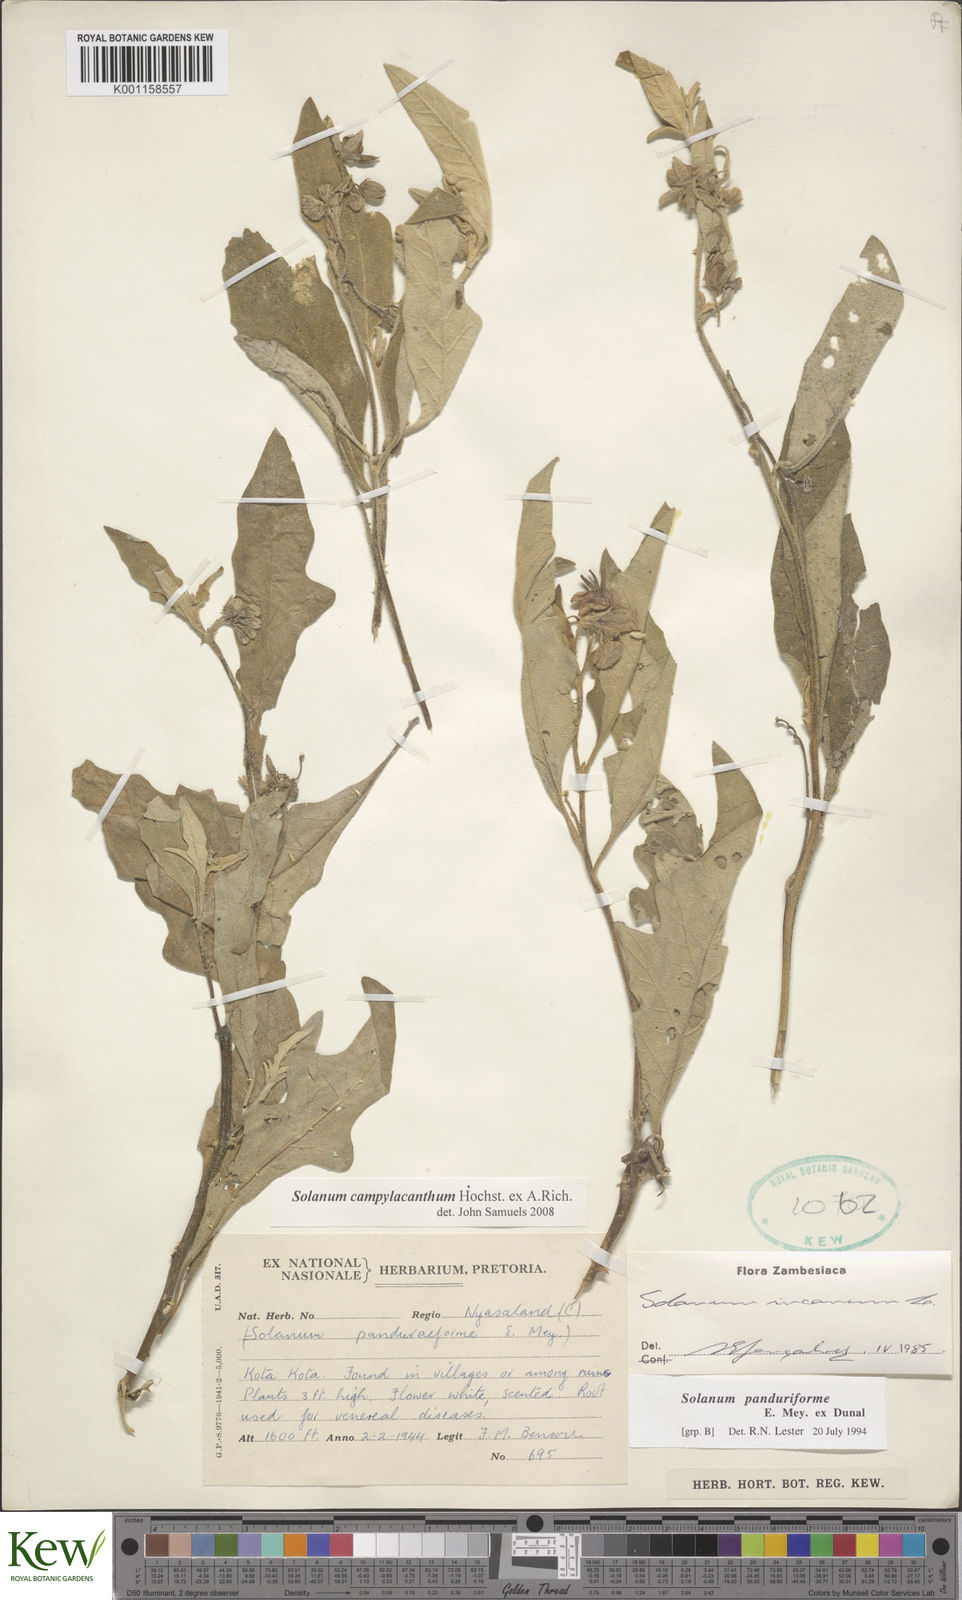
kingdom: Plantae
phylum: Tracheophyta
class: Magnoliopsida
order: Solanales
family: Solanaceae
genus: Solanum
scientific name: Solanum campylacanthum
